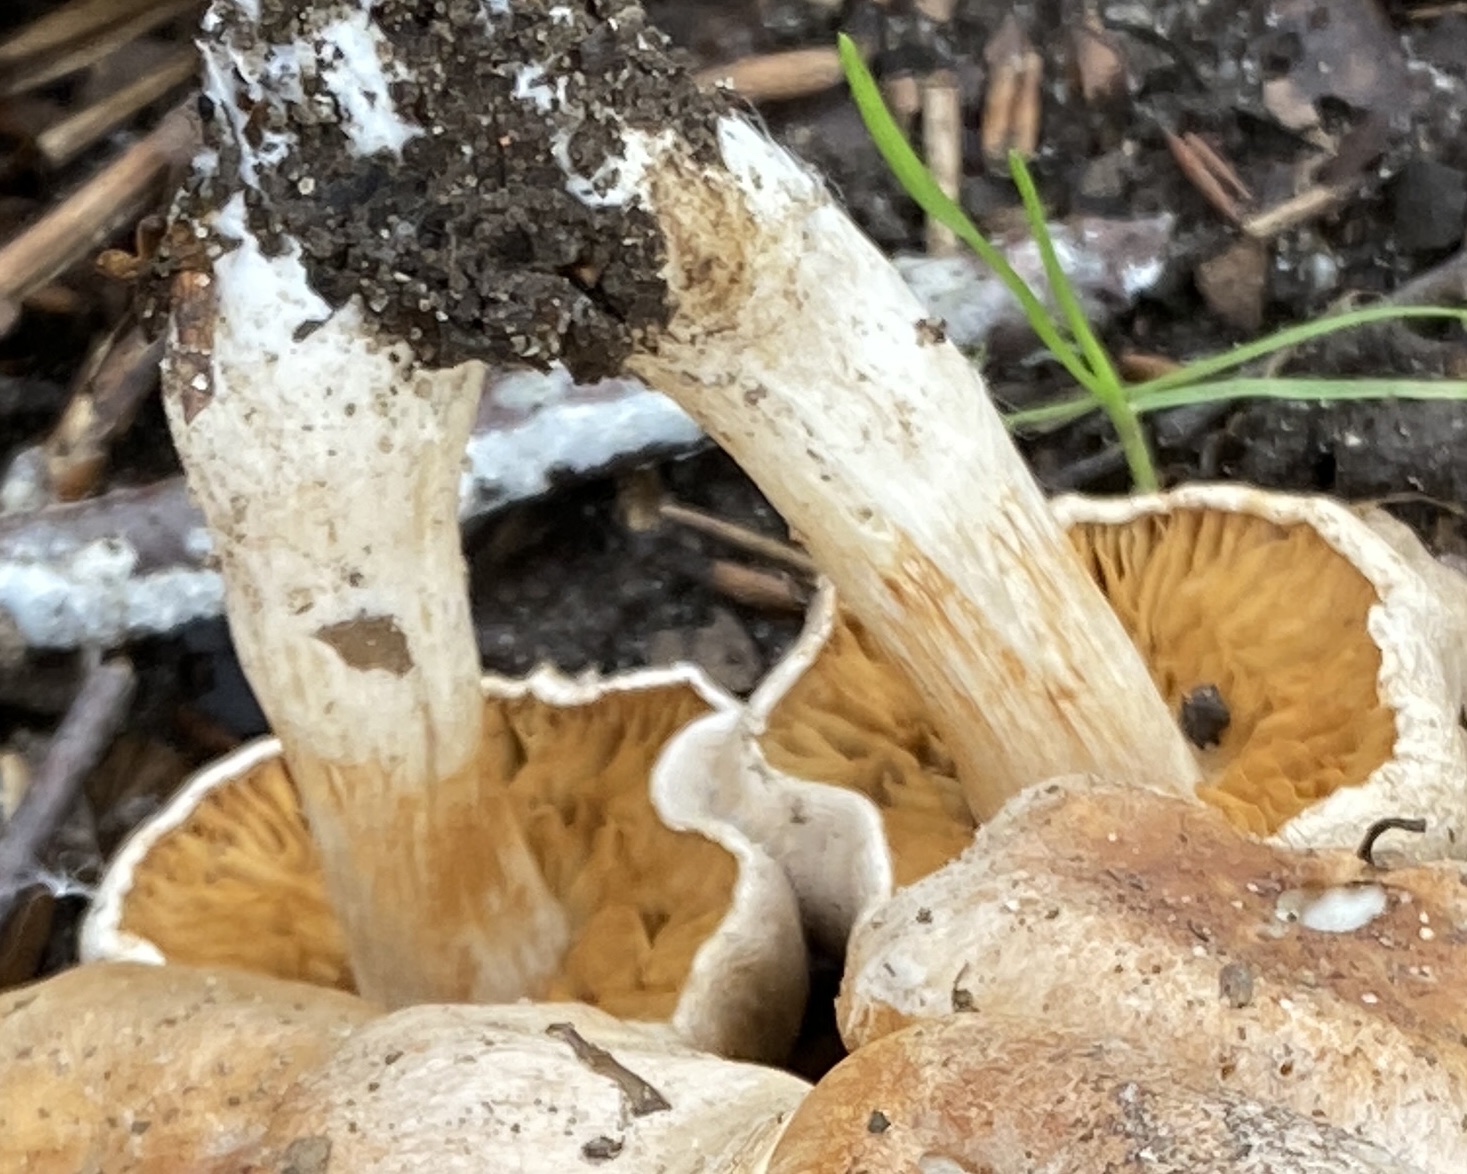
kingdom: Fungi
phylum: Basidiomycota
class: Agaricomycetes
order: Agaricales
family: Cortinariaceae
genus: Cortinarius
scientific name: Cortinarius
